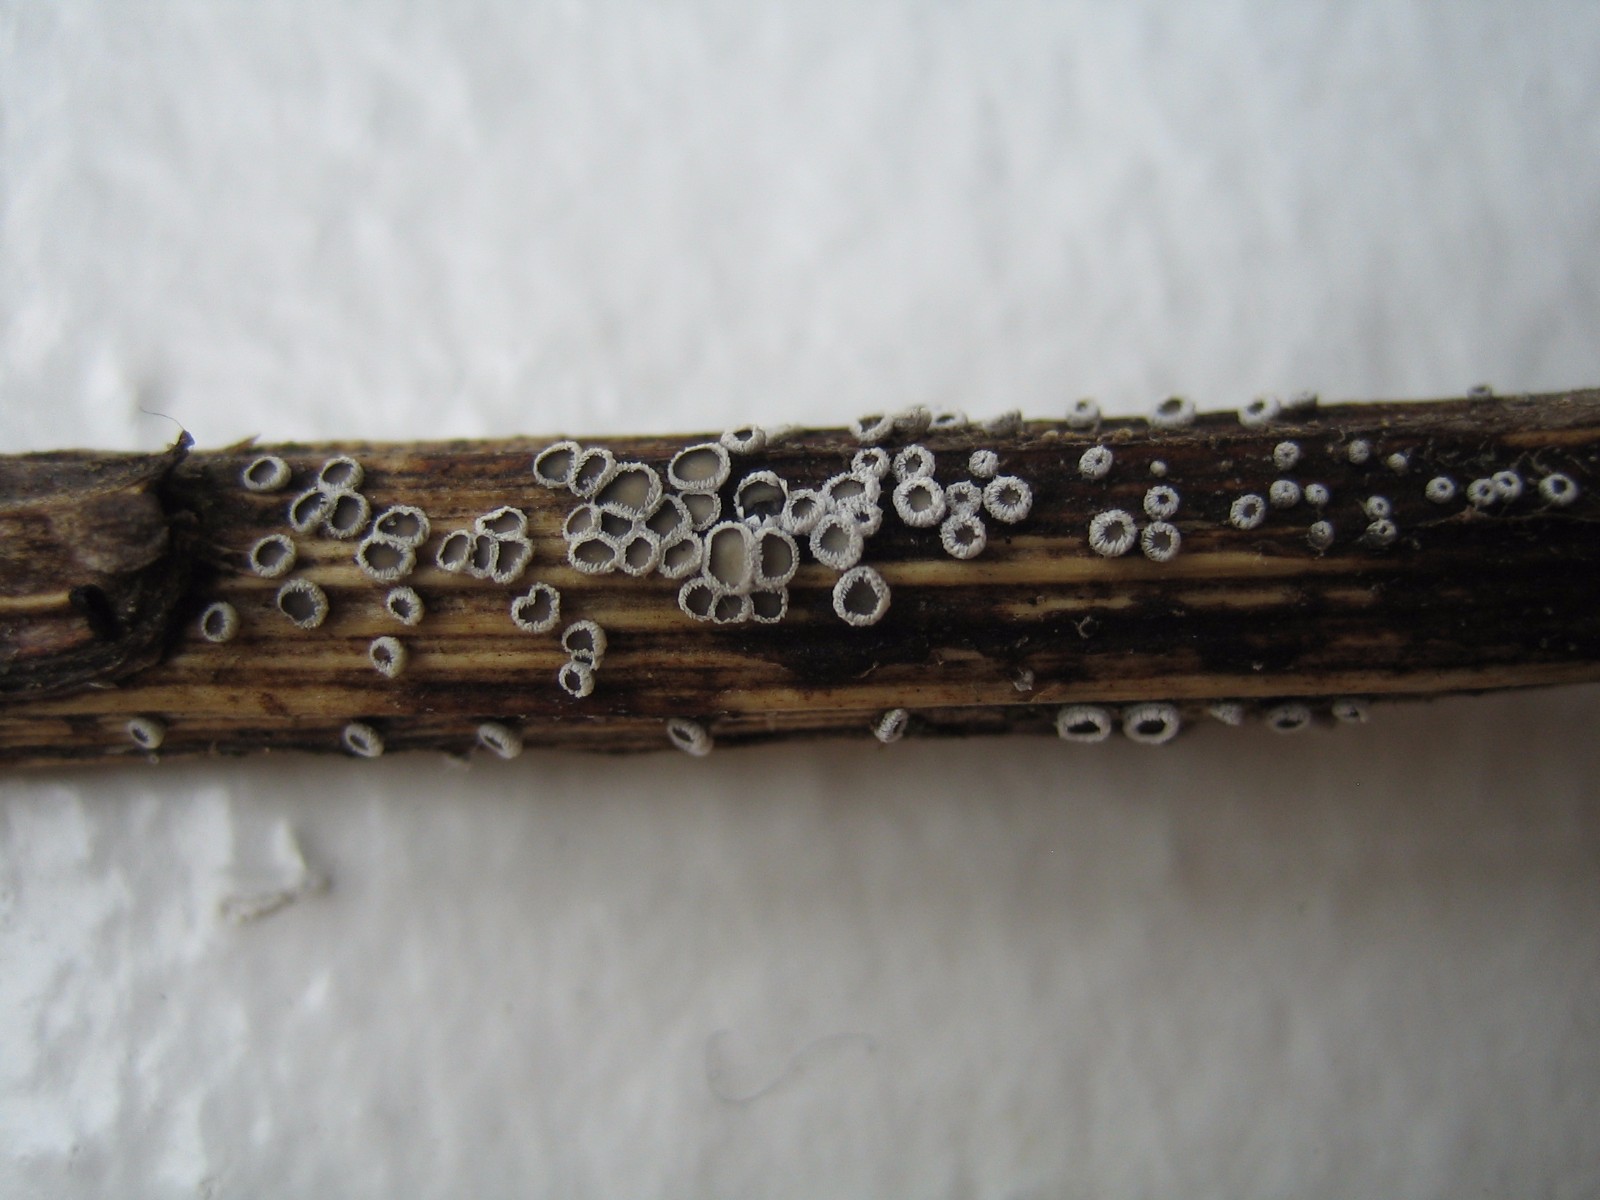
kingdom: Fungi
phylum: Basidiomycota
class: Agaricomycetes
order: Agaricales
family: Niaceae
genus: Lachnella
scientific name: Lachnella alboviolascens
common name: grå frynserede
